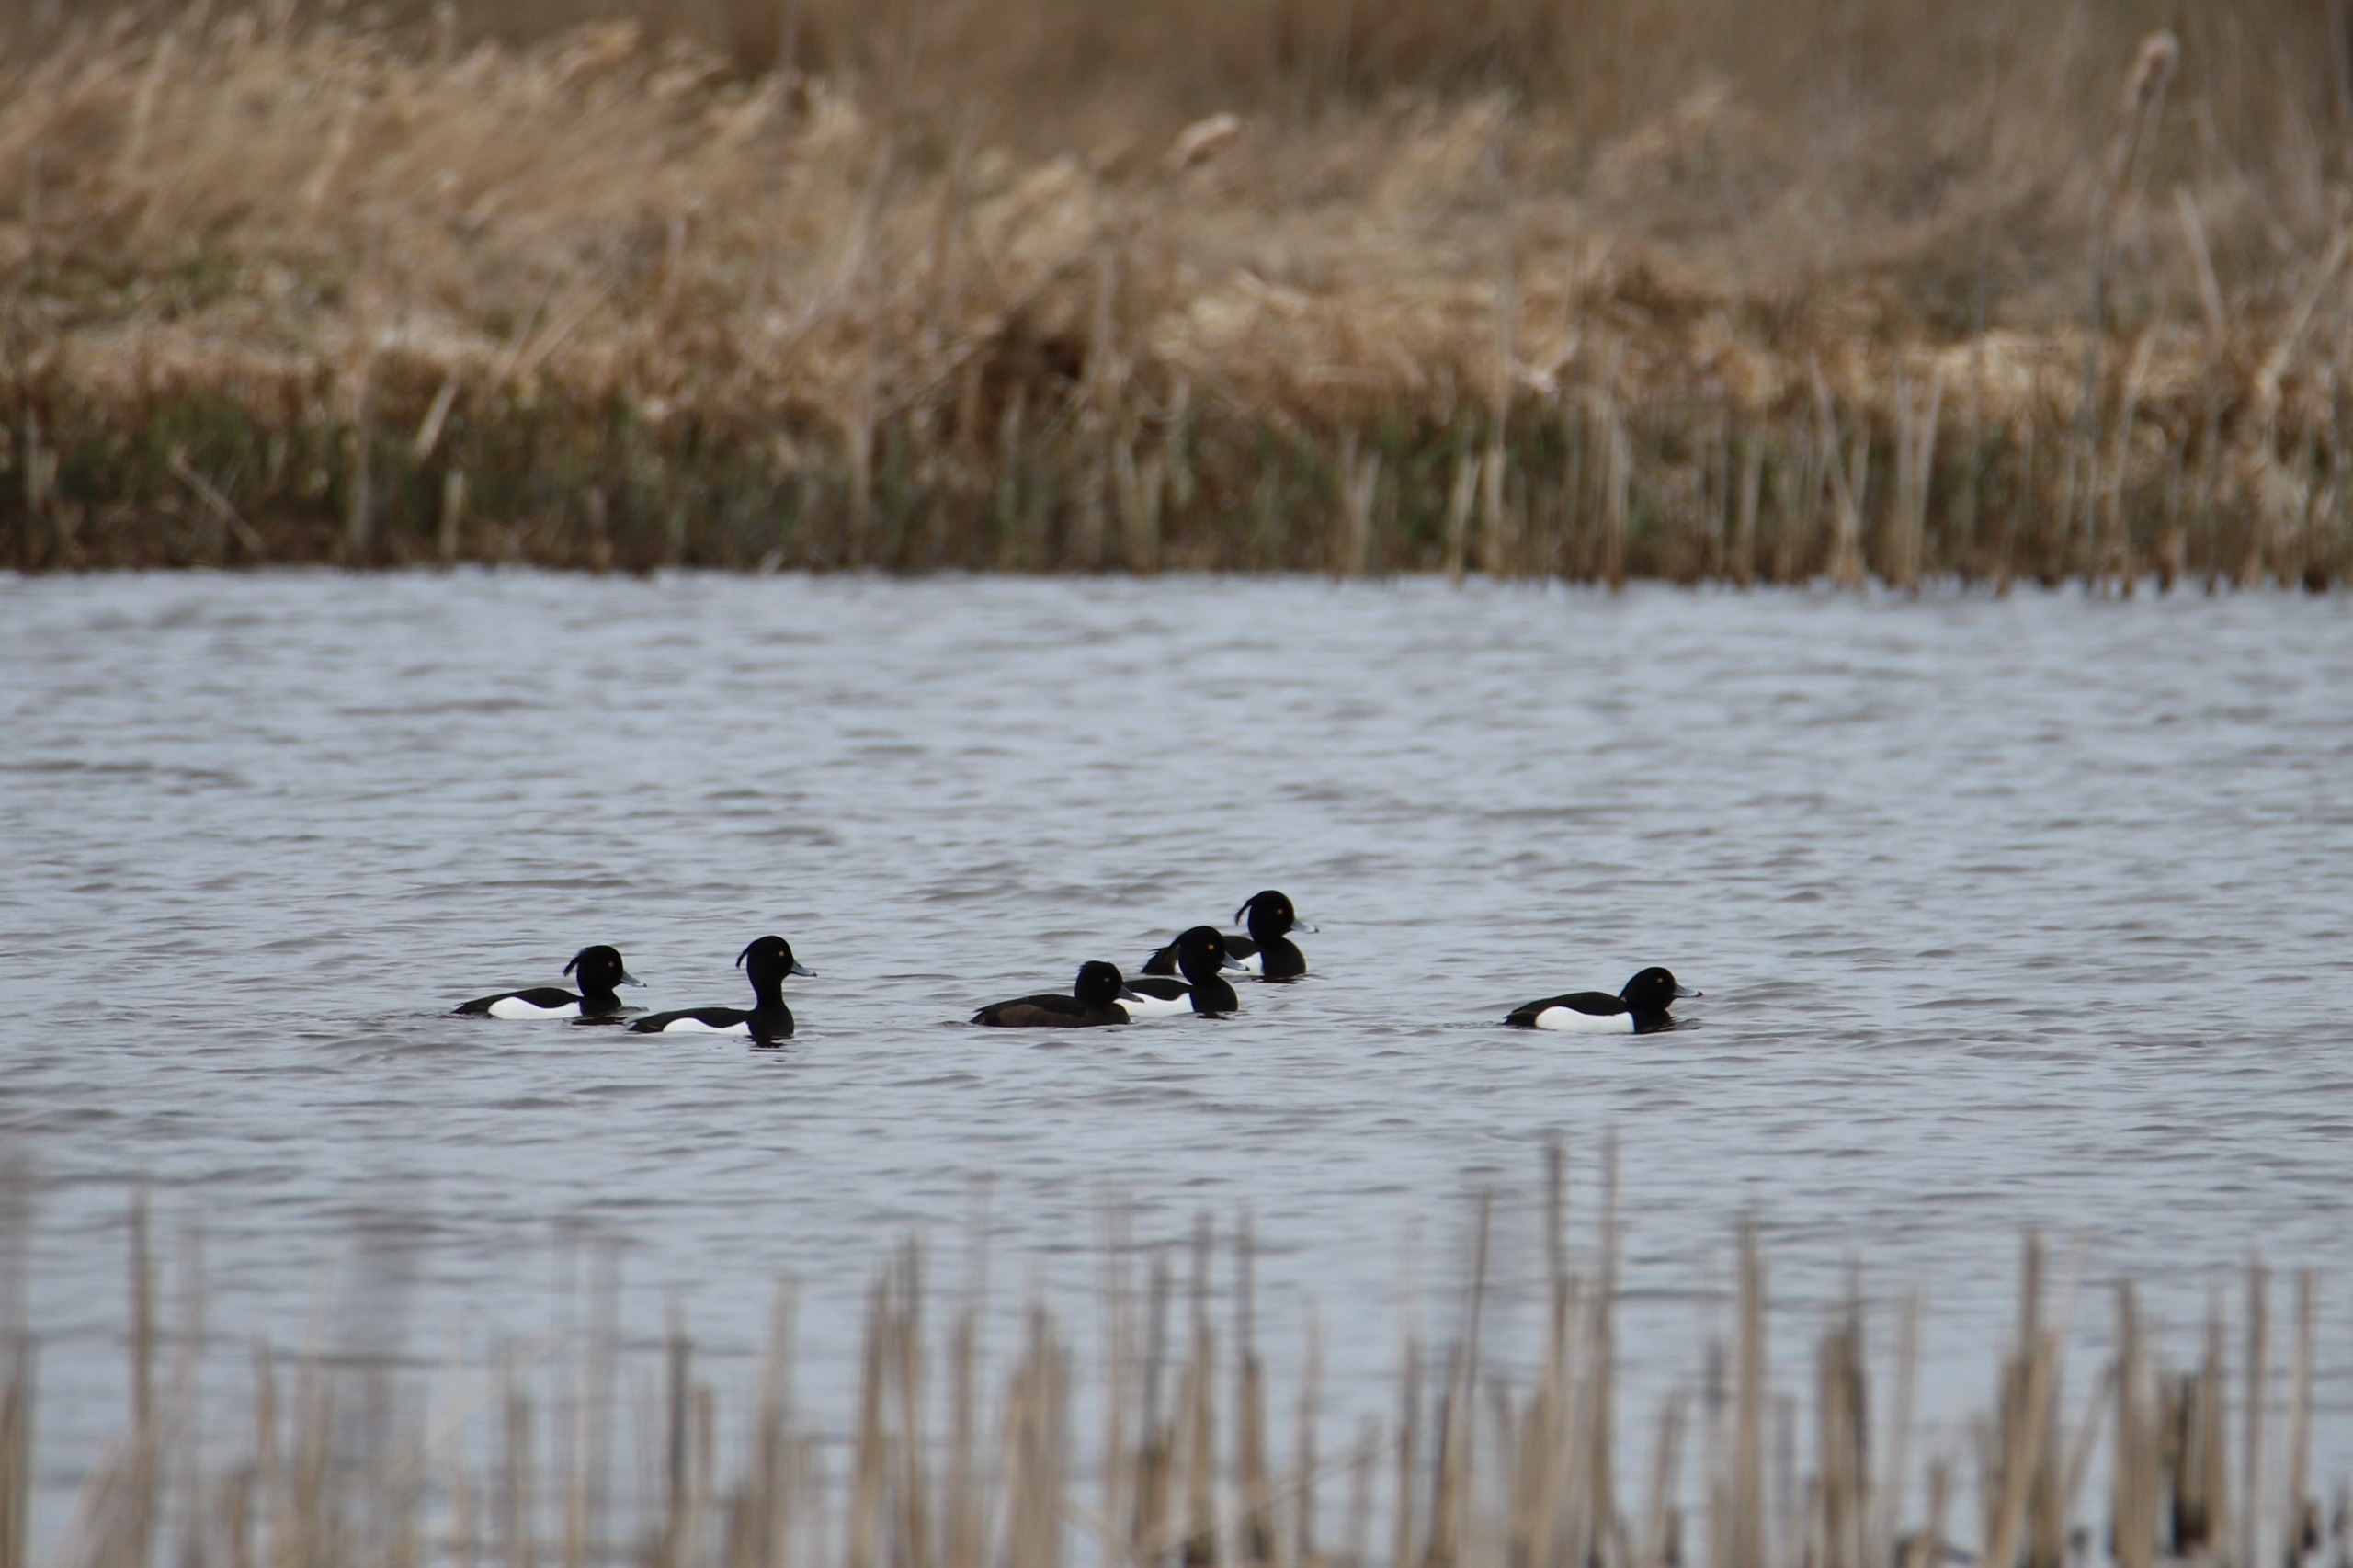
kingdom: Animalia
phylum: Chordata
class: Aves
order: Anseriformes
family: Anatidae
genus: Aythya
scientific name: Aythya fuligula
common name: Troldand
